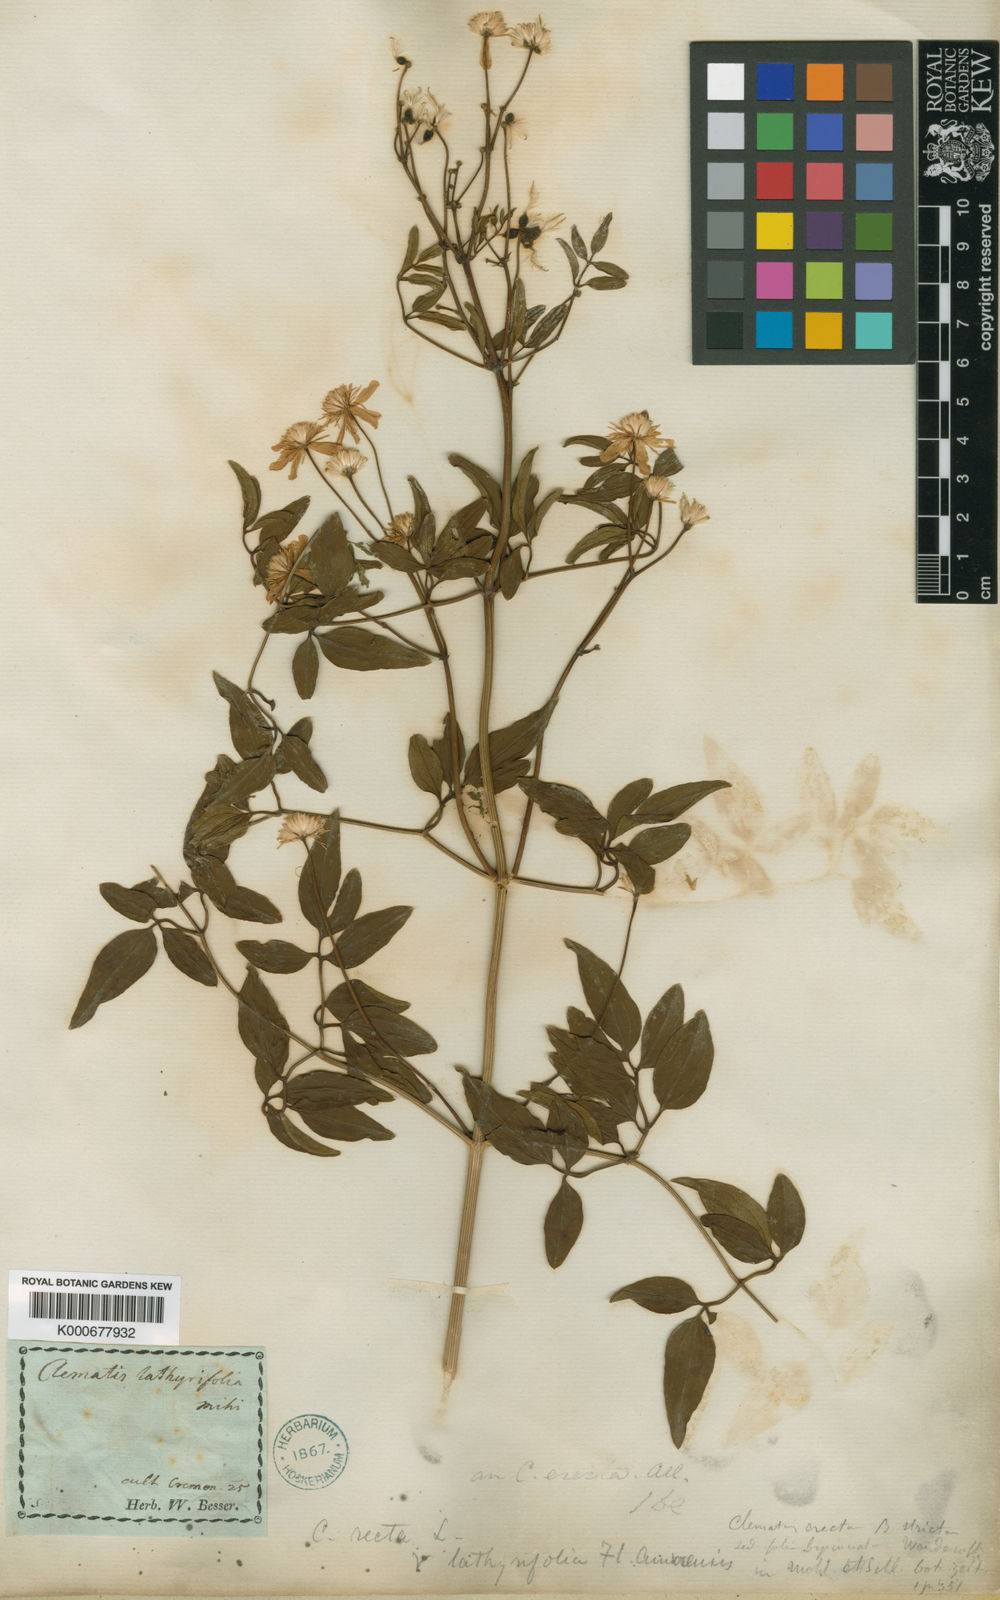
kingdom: Plantae
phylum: Tracheophyta
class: Magnoliopsida
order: Ranunculales
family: Ranunculaceae
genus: Clematis
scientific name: Clematis recta
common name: Ground clematis
